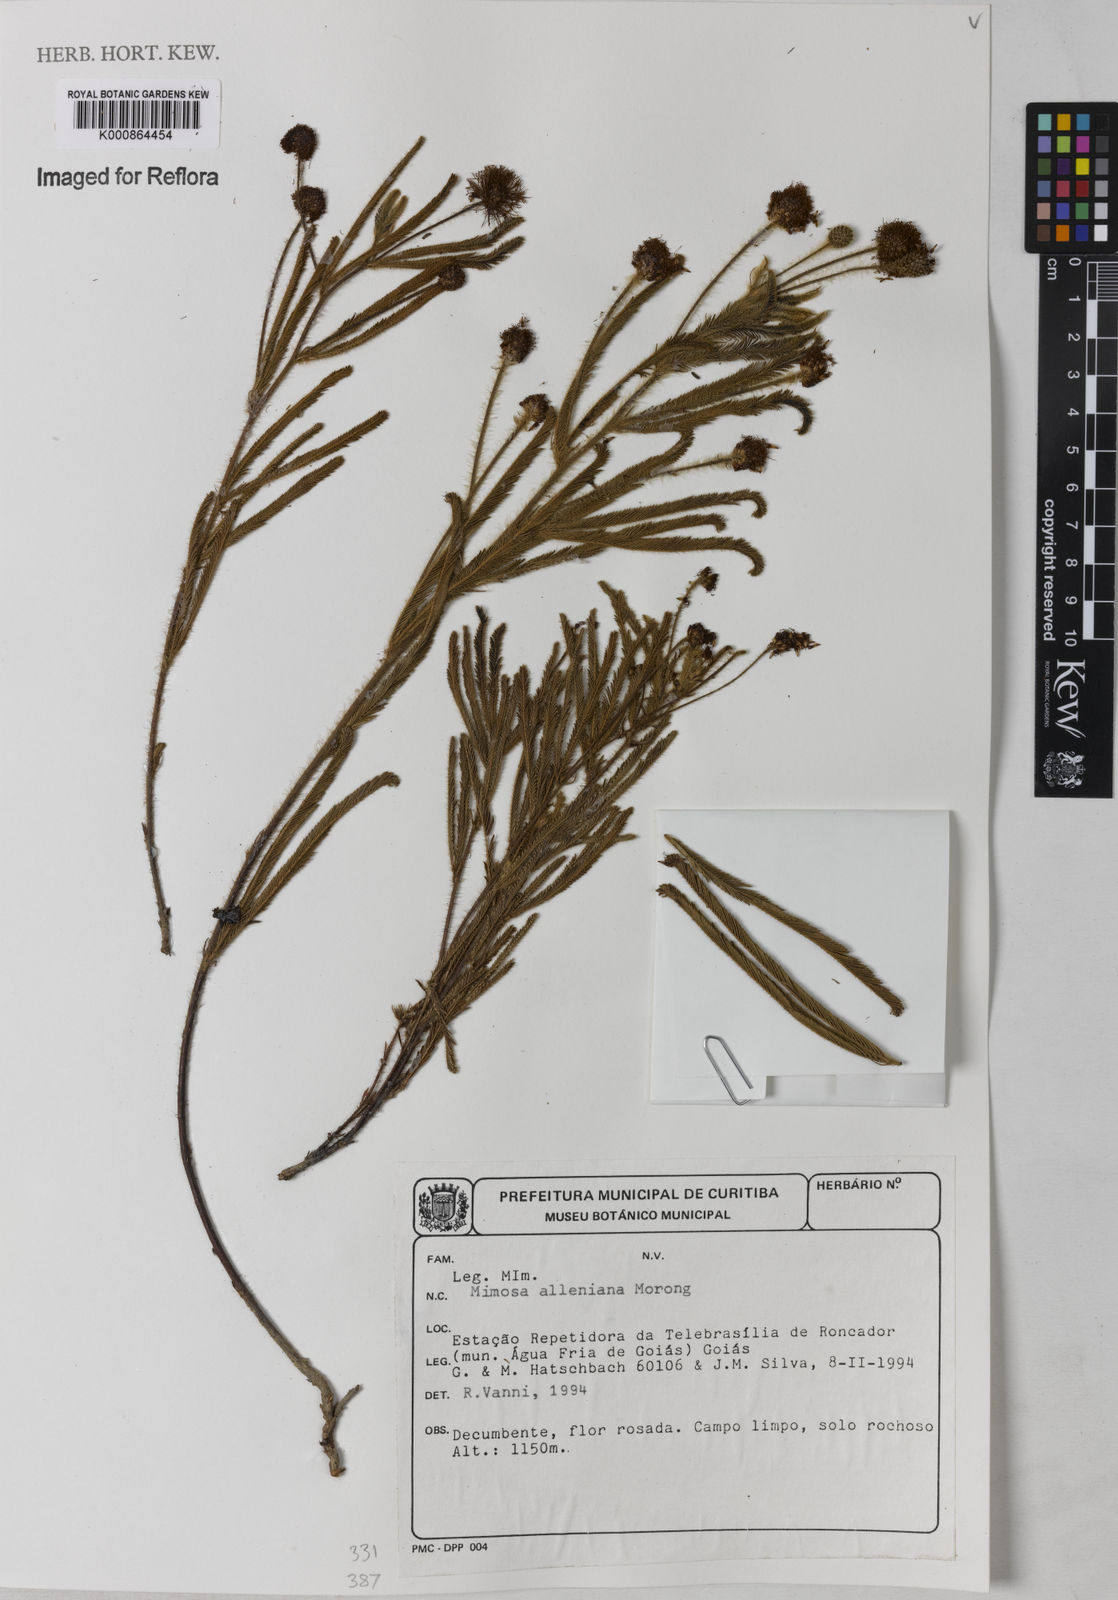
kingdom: Plantae
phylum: Tracheophyta
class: Magnoliopsida
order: Fabales
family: Fabaceae
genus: Mimosa
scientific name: Mimosa alleniana
